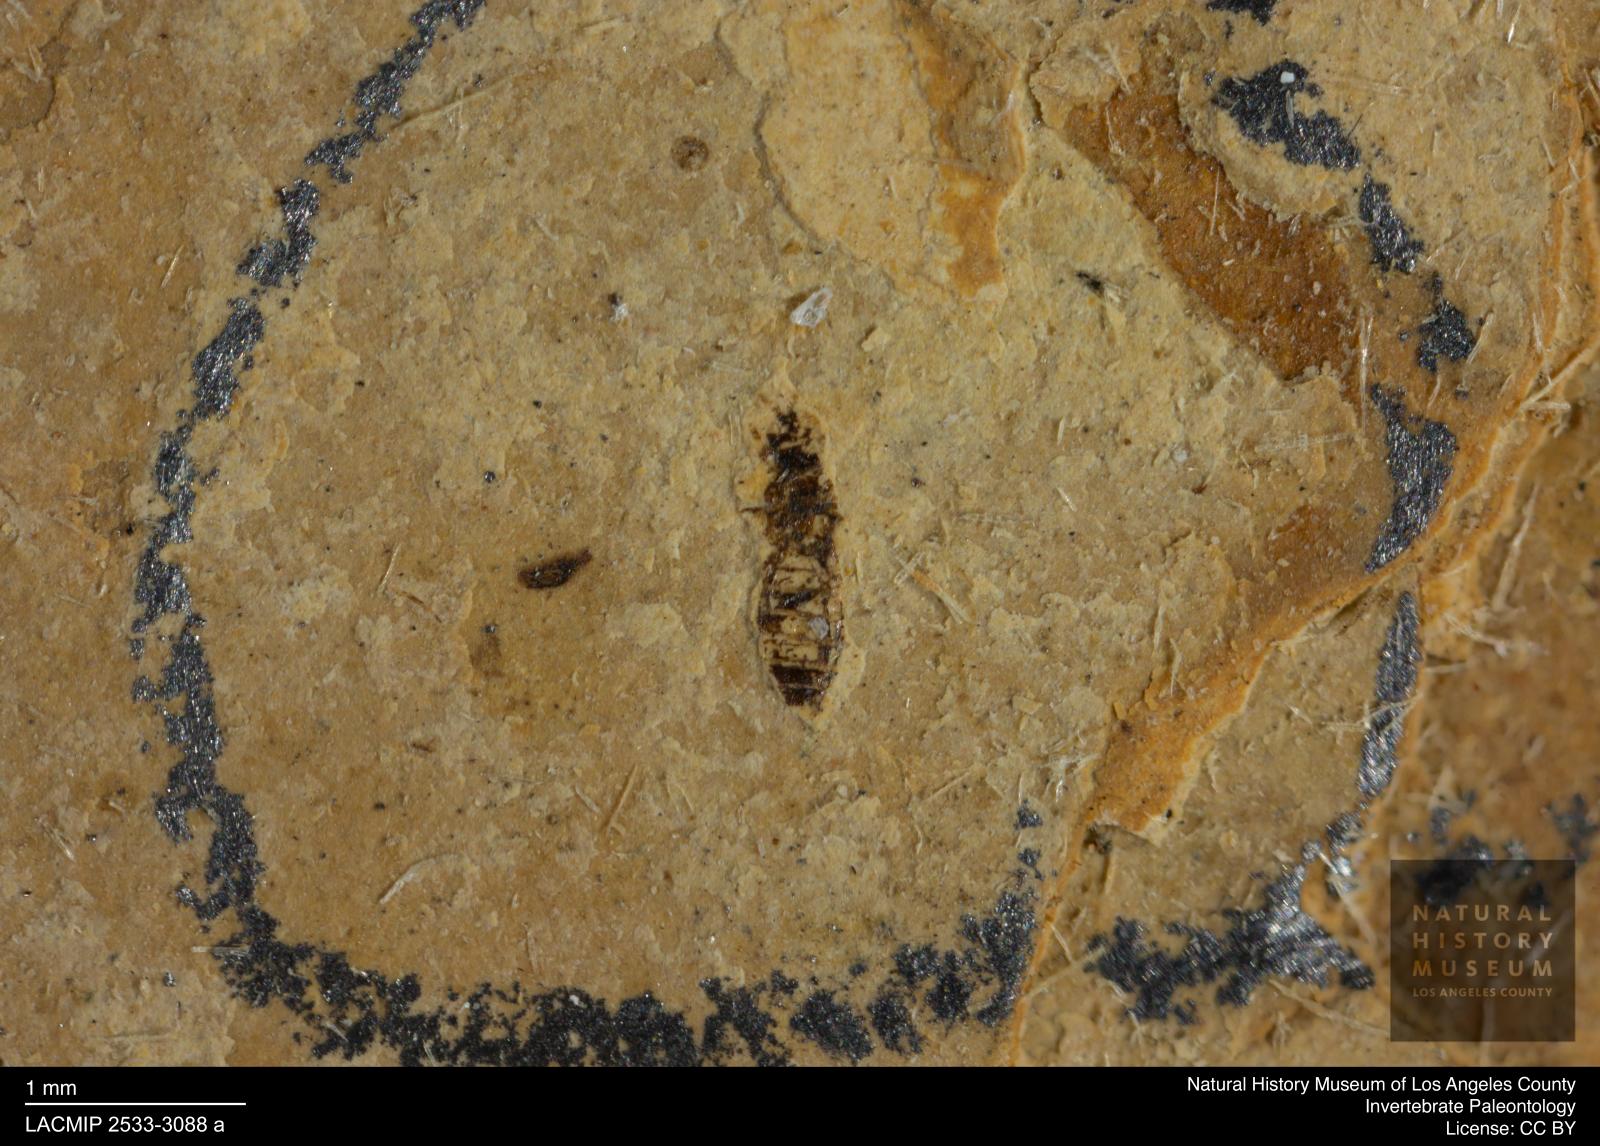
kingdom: Animalia
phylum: Arthropoda
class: Insecta
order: Thysanoptera
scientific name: Thysanoptera
